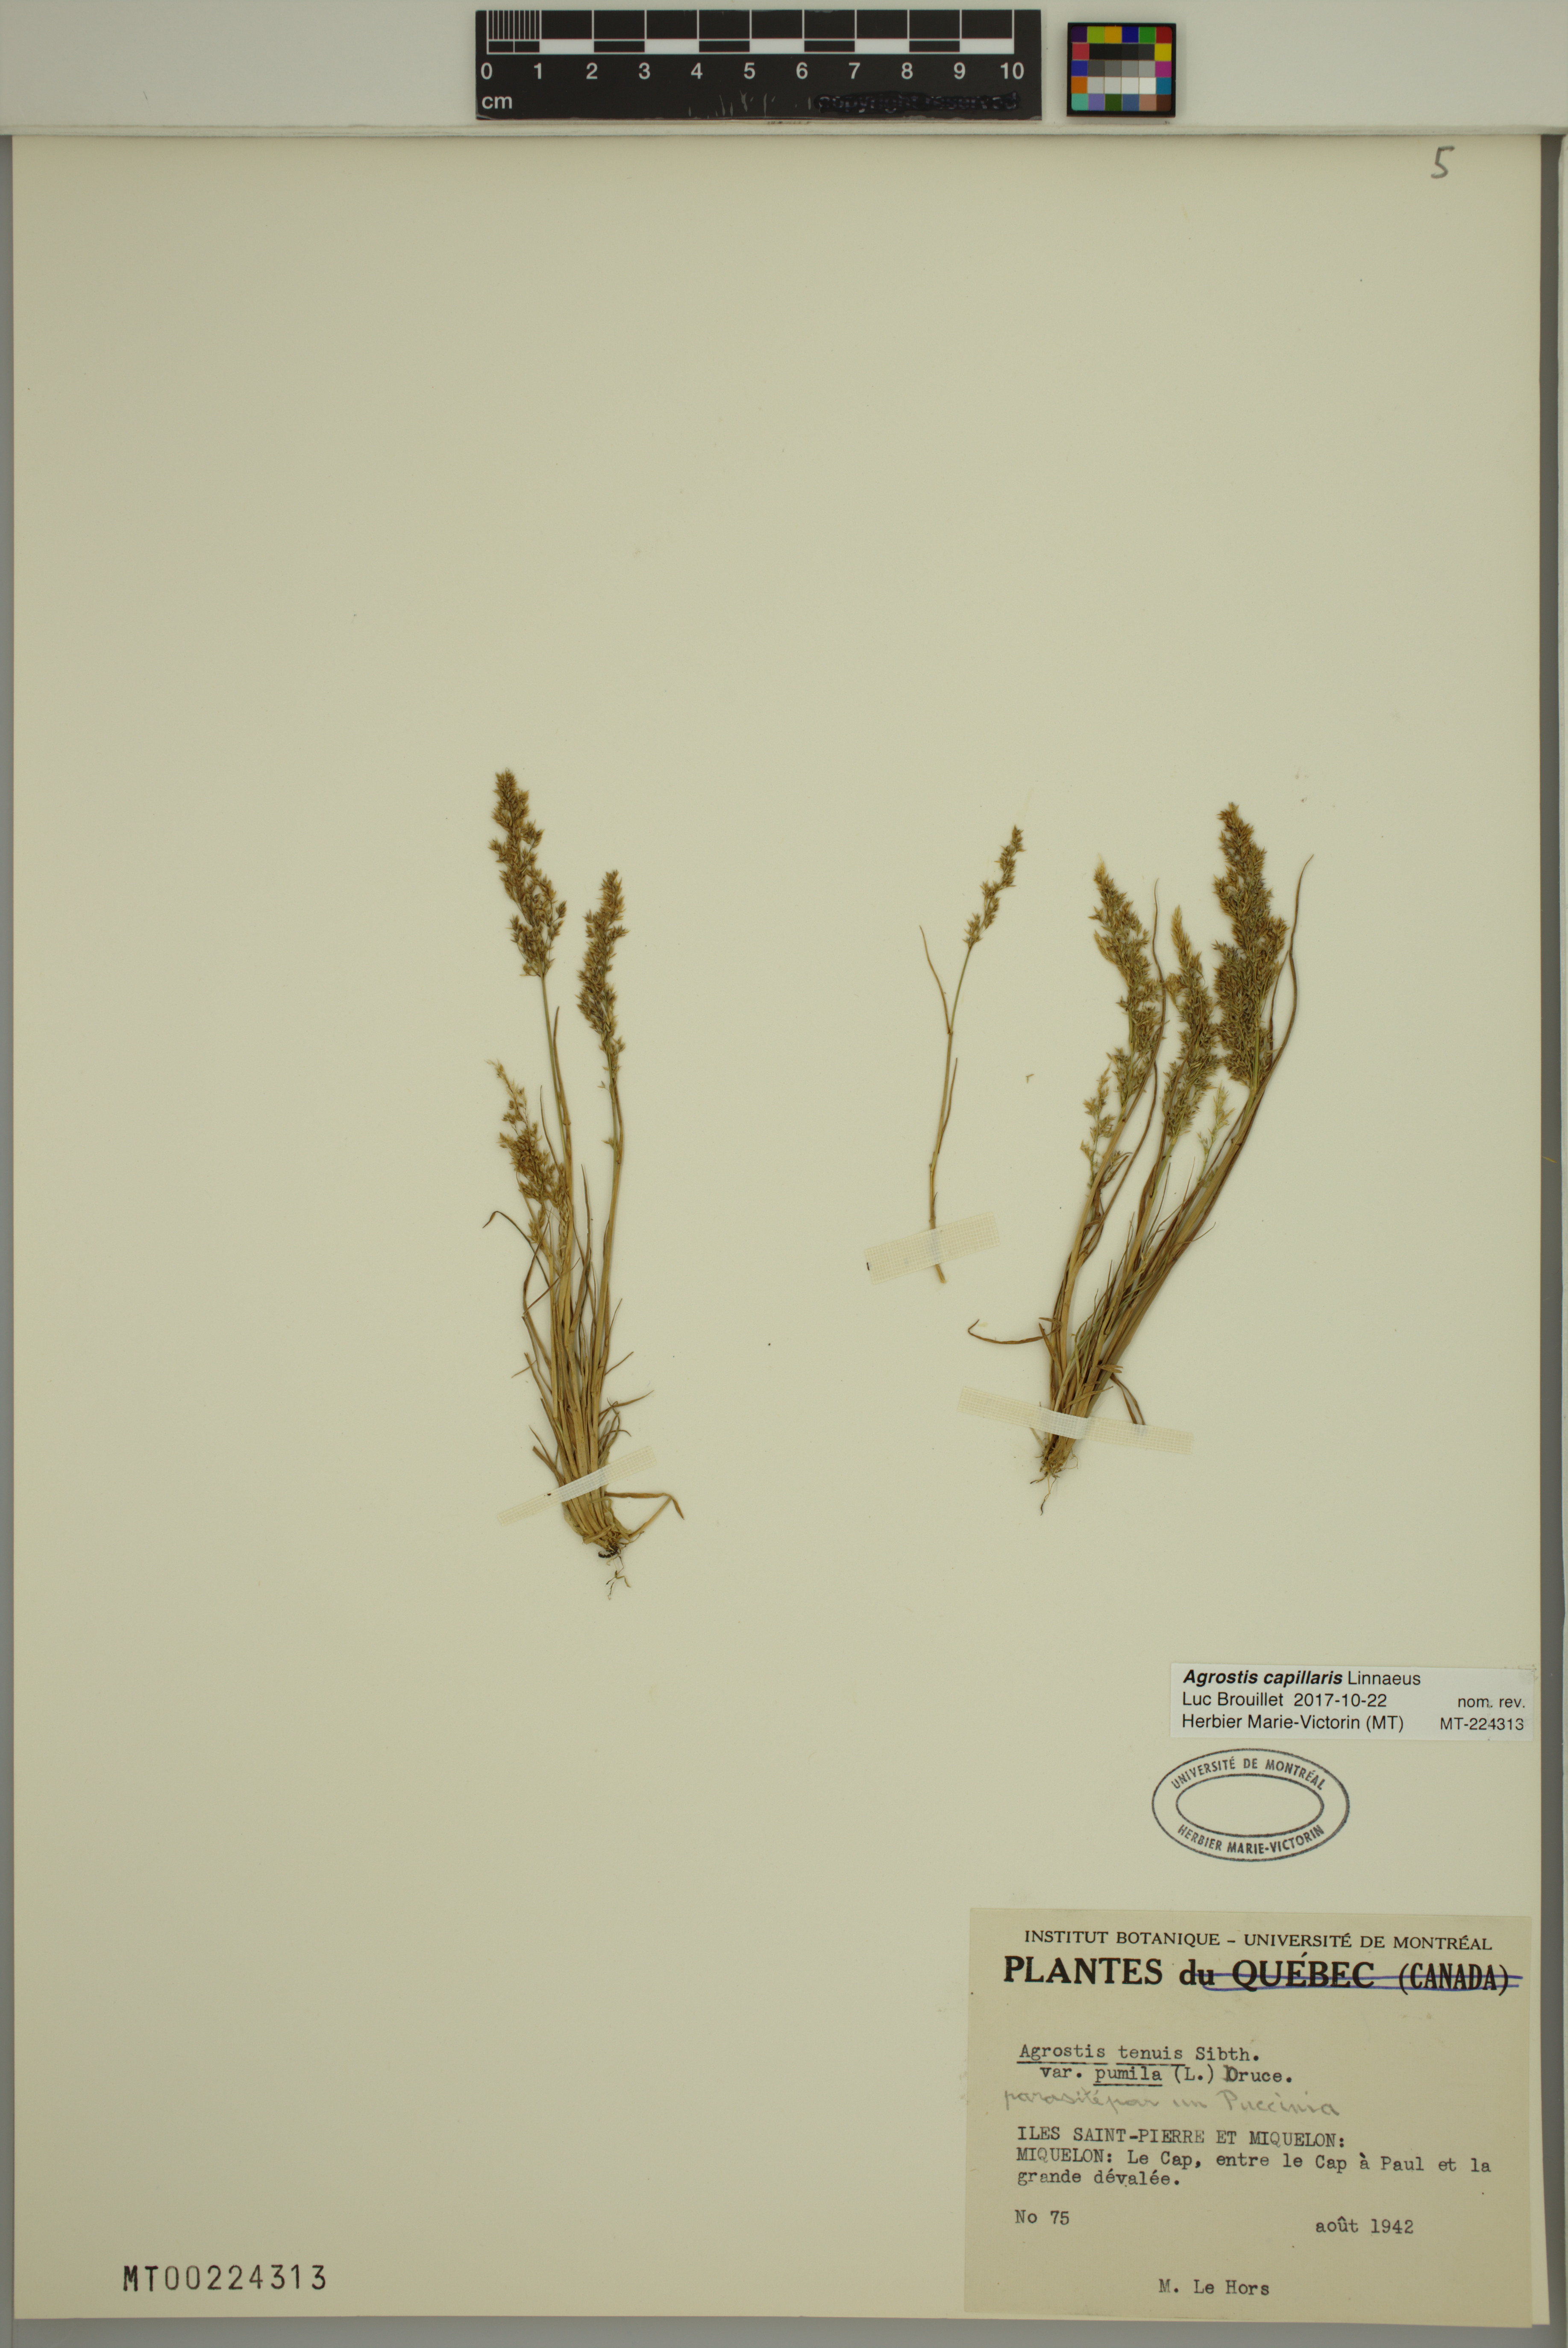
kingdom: Plantae
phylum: Tracheophyta
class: Liliopsida
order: Poales
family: Poaceae
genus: Agrostis
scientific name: Agrostis capillaris
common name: Colonial bentgrass
